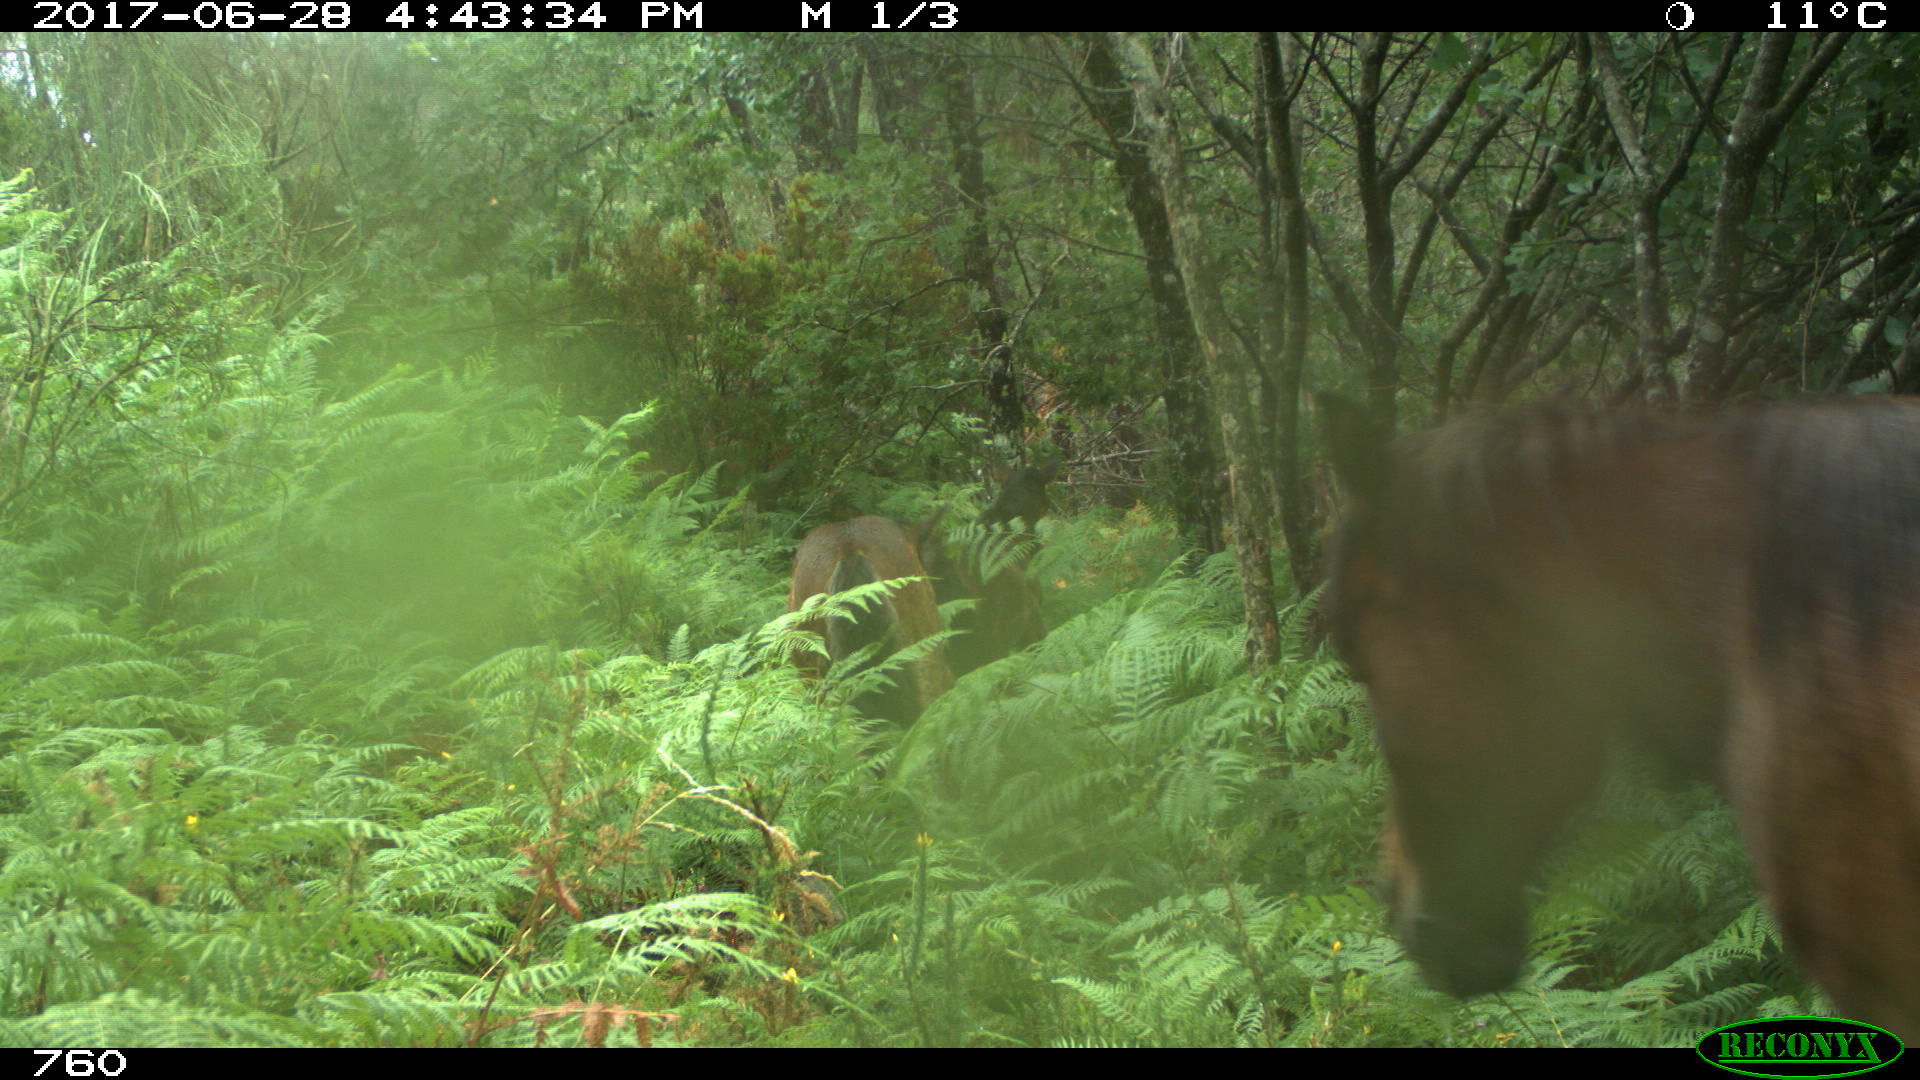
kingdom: Animalia
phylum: Chordata
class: Mammalia
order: Perissodactyla
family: Equidae
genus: Equus
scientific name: Equus caballus
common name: Horse
